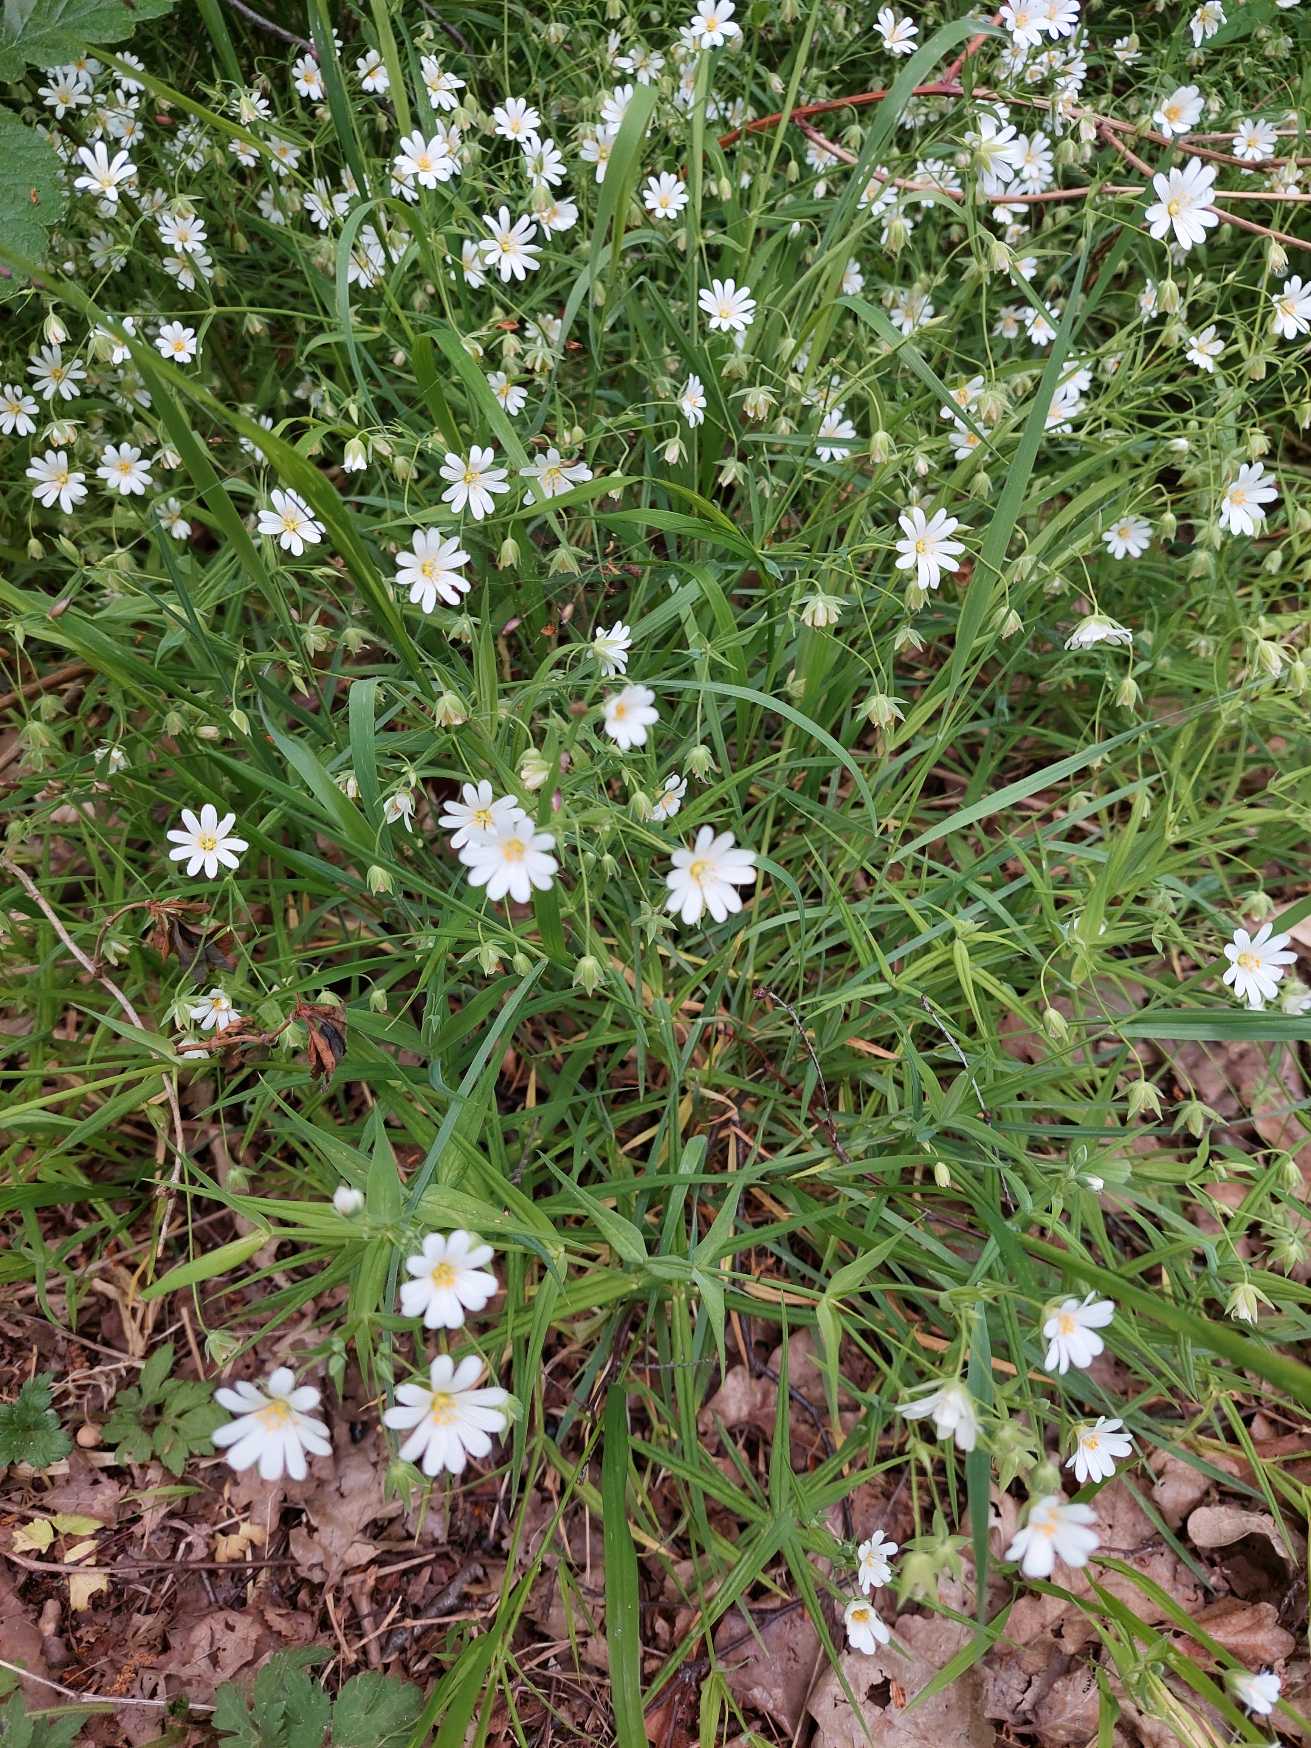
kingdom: Plantae
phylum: Tracheophyta
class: Magnoliopsida
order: Caryophyllales
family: Caryophyllaceae
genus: Rabelera
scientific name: Rabelera holostea
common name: Stor fladstjerne
